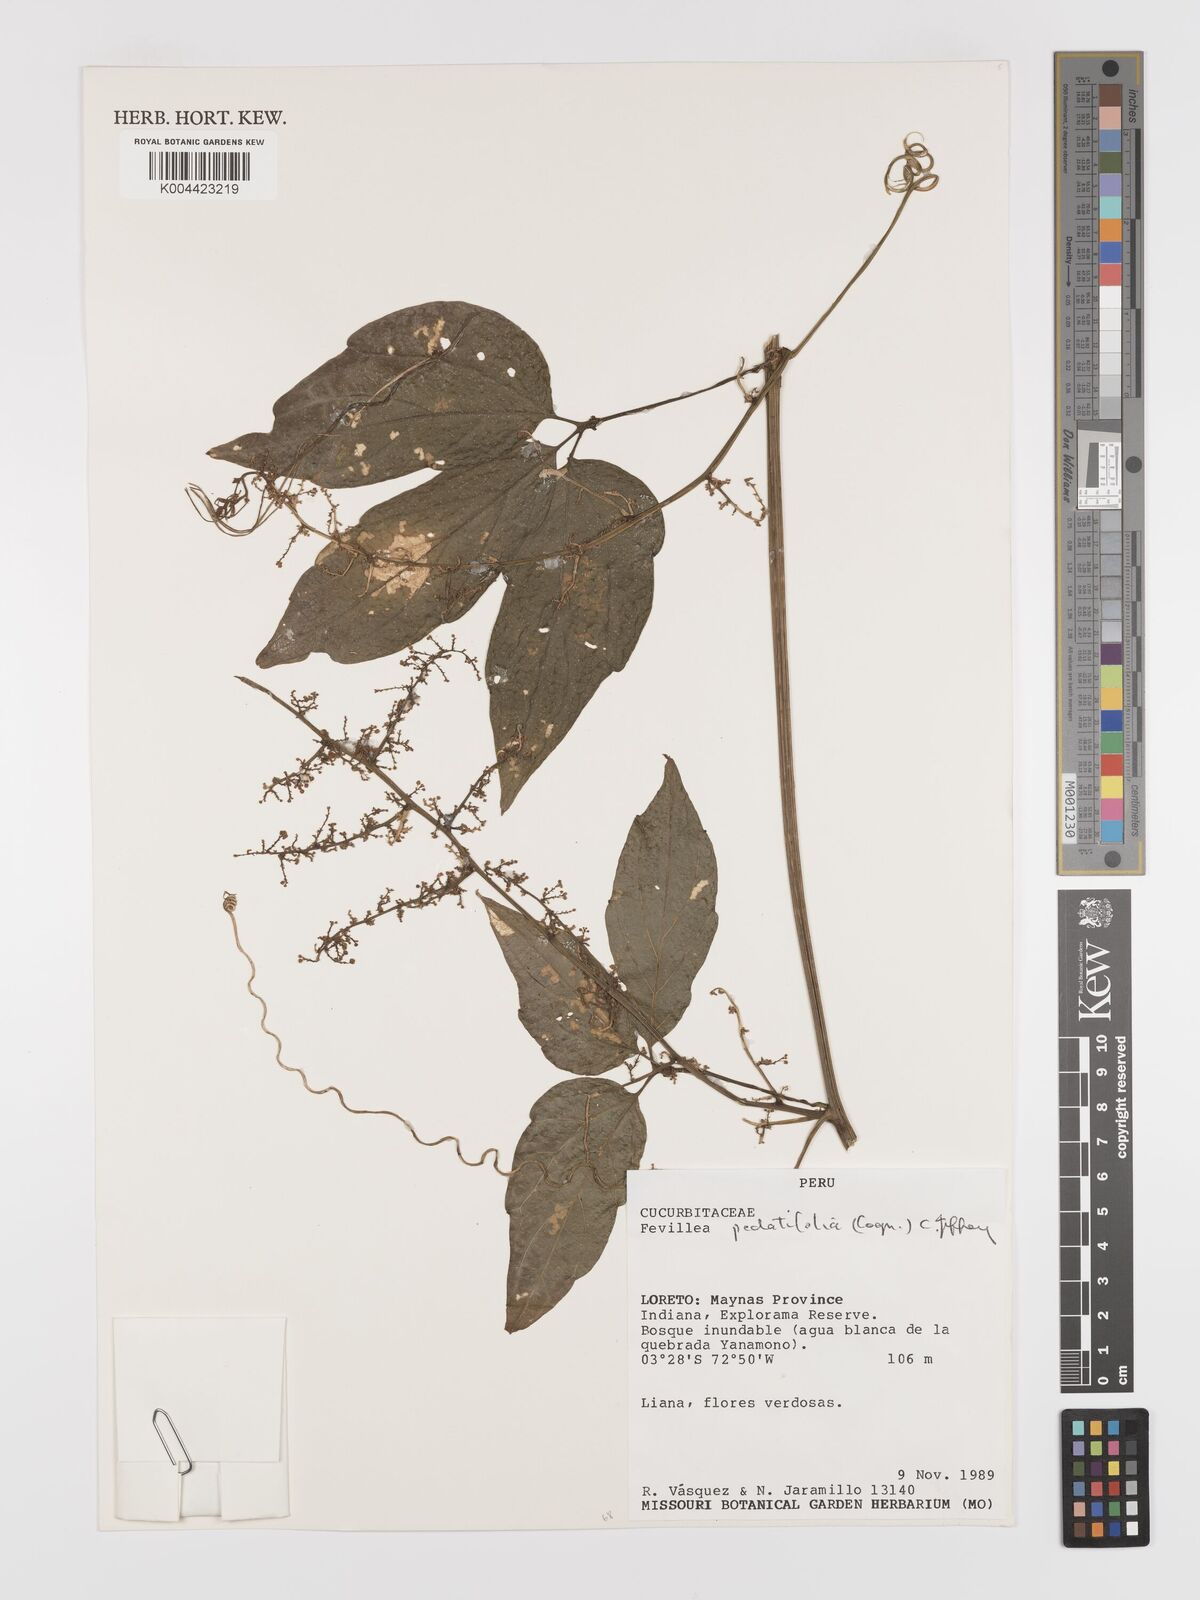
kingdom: Plantae
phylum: Tracheophyta
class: Magnoliopsida
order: Cucurbitales
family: Cucurbitaceae
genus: Fevillea
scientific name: Fevillea pedatifolia
